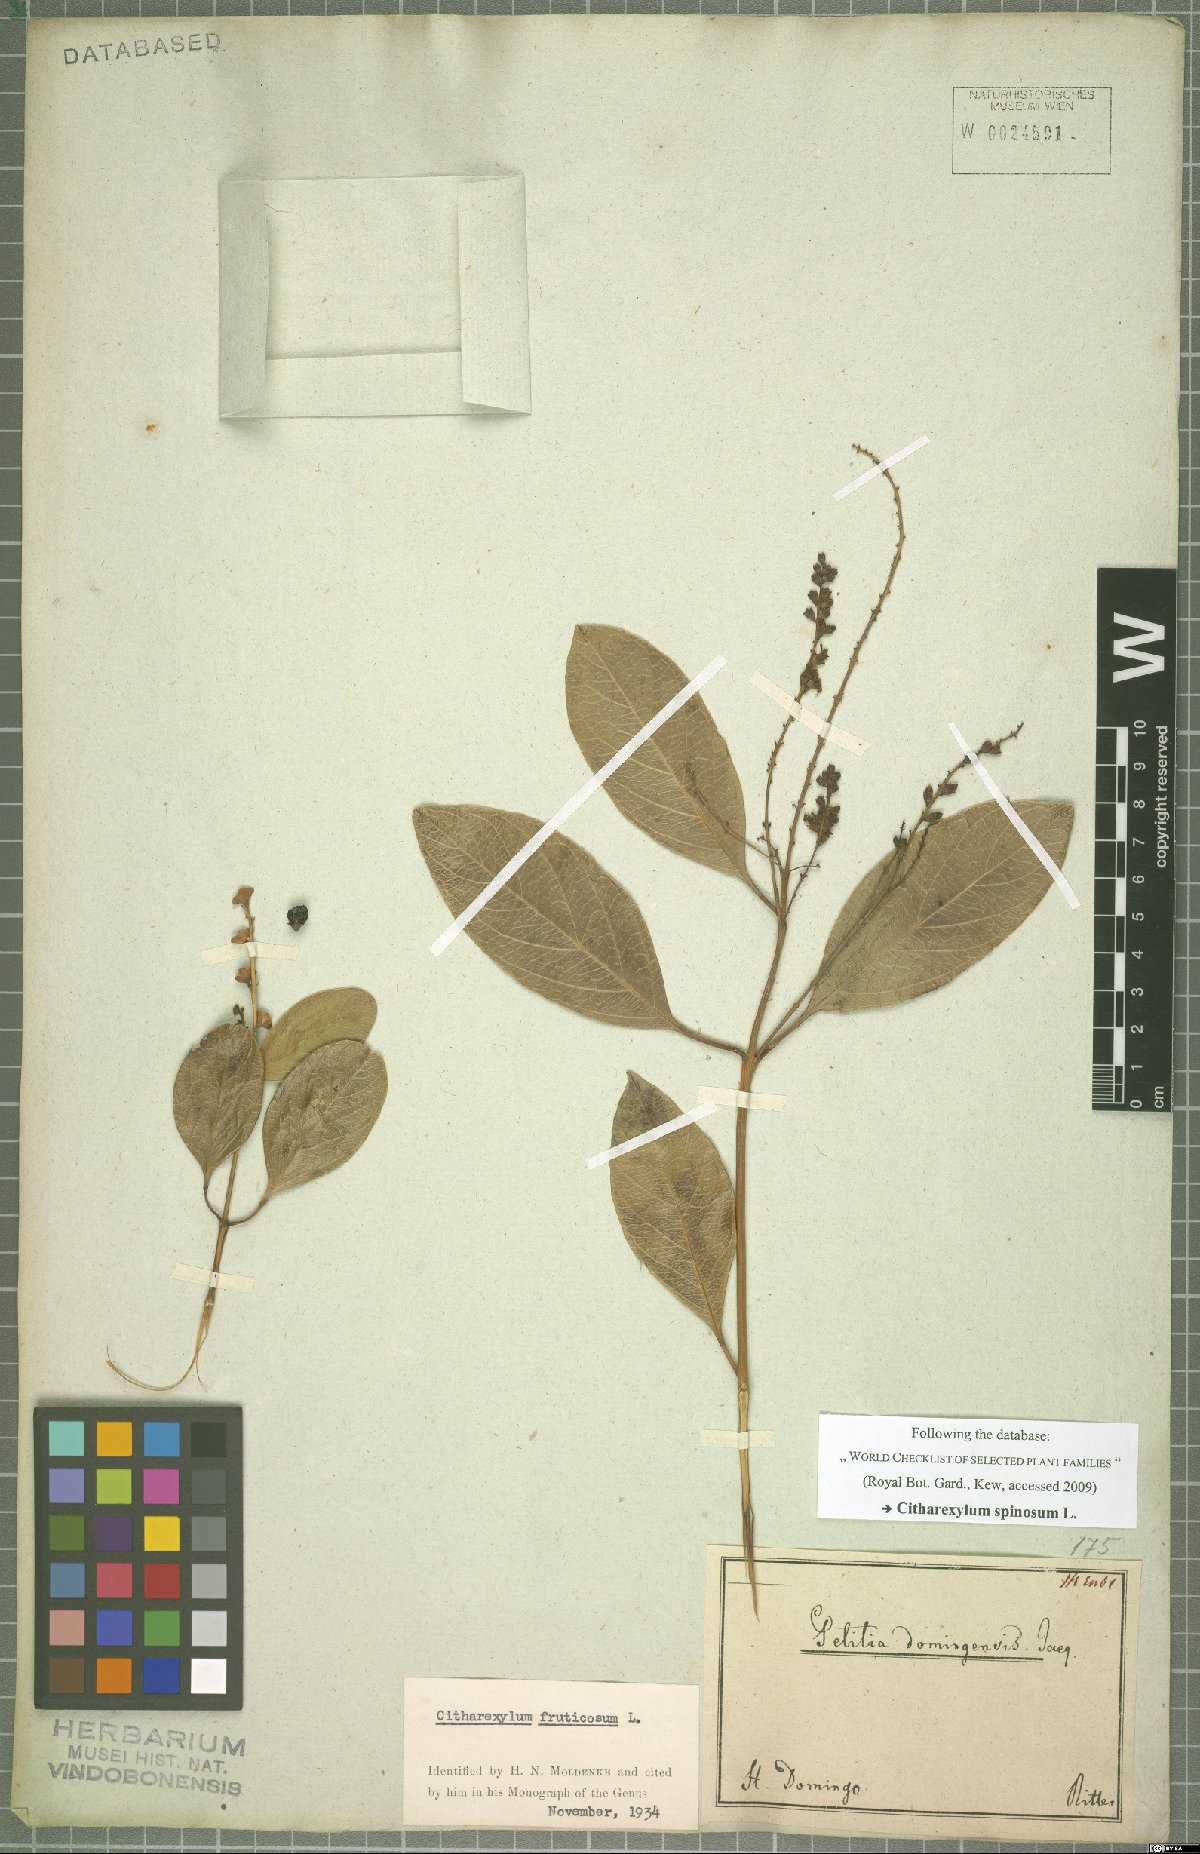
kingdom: Plantae
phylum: Tracheophyta
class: Magnoliopsida
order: Lamiales
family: Verbenaceae
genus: Citharexylum
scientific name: Citharexylum spinosum
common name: Fiddlewood
